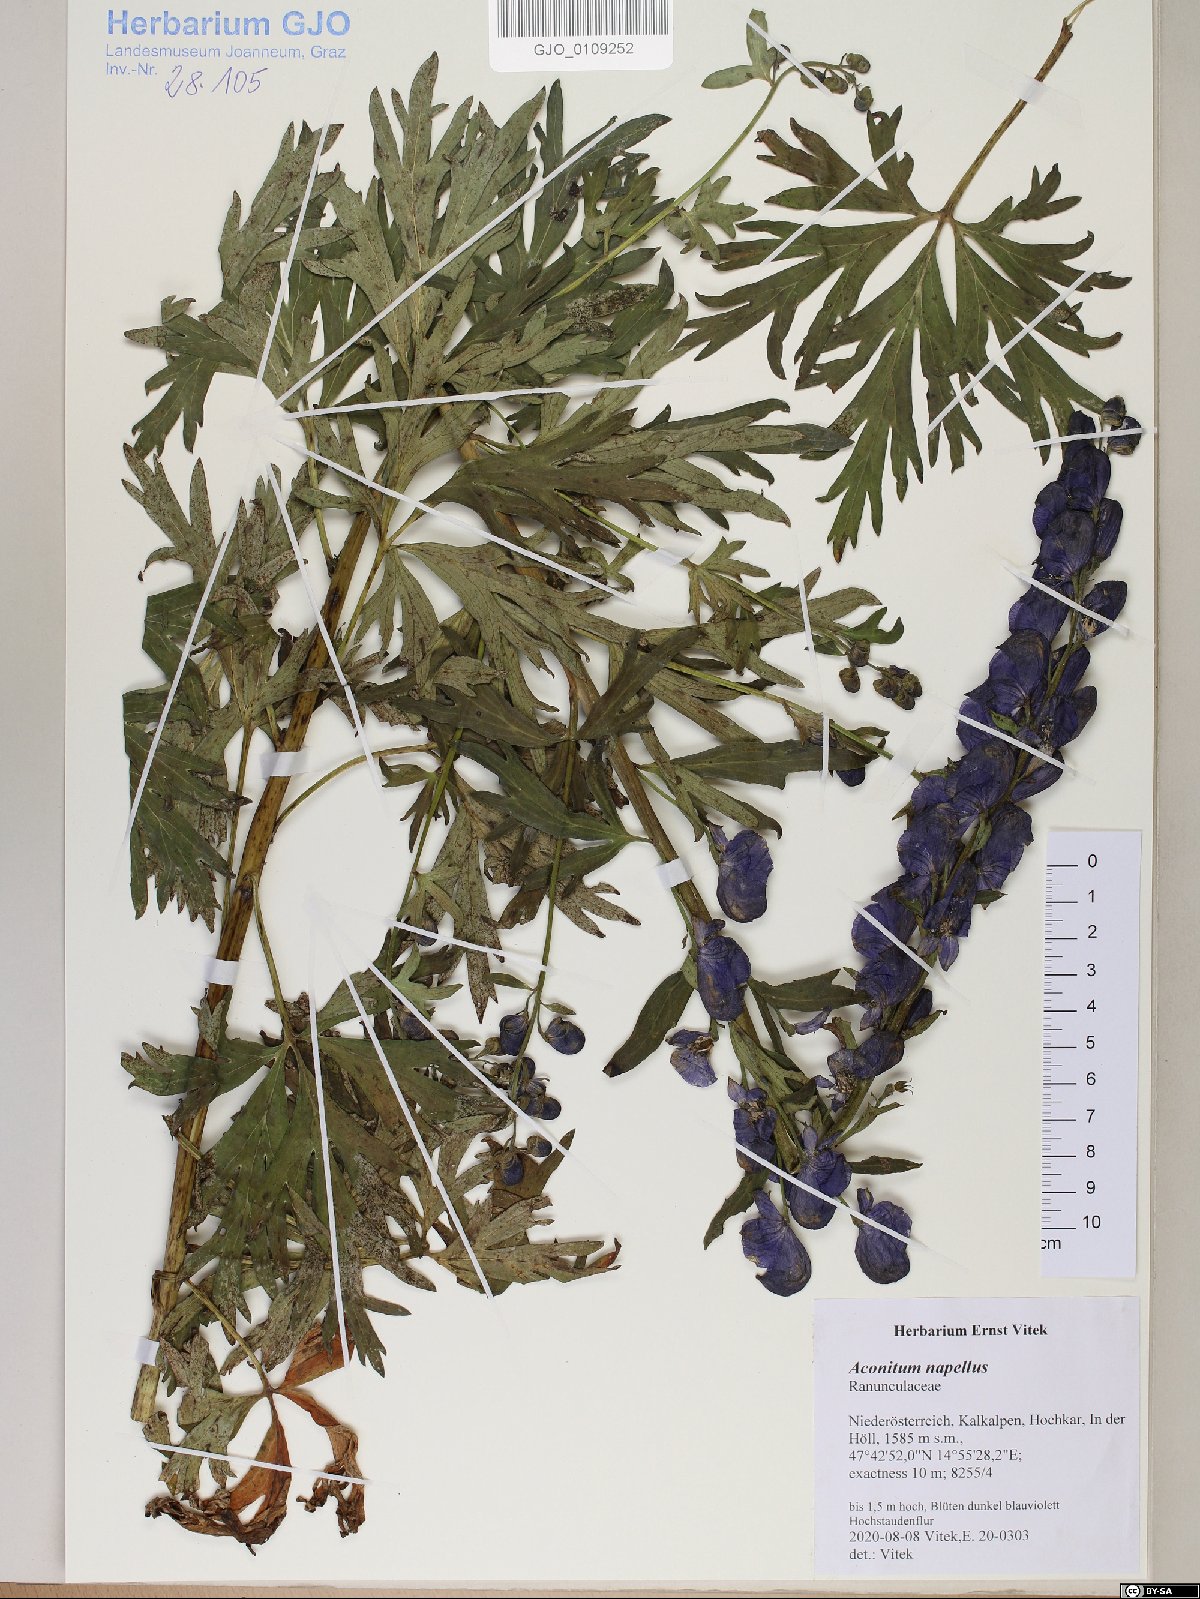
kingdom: Plantae
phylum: Tracheophyta
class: Magnoliopsida
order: Ranunculales
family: Ranunculaceae
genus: Aconitum
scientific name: Aconitum napellus
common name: Garden monkshood
